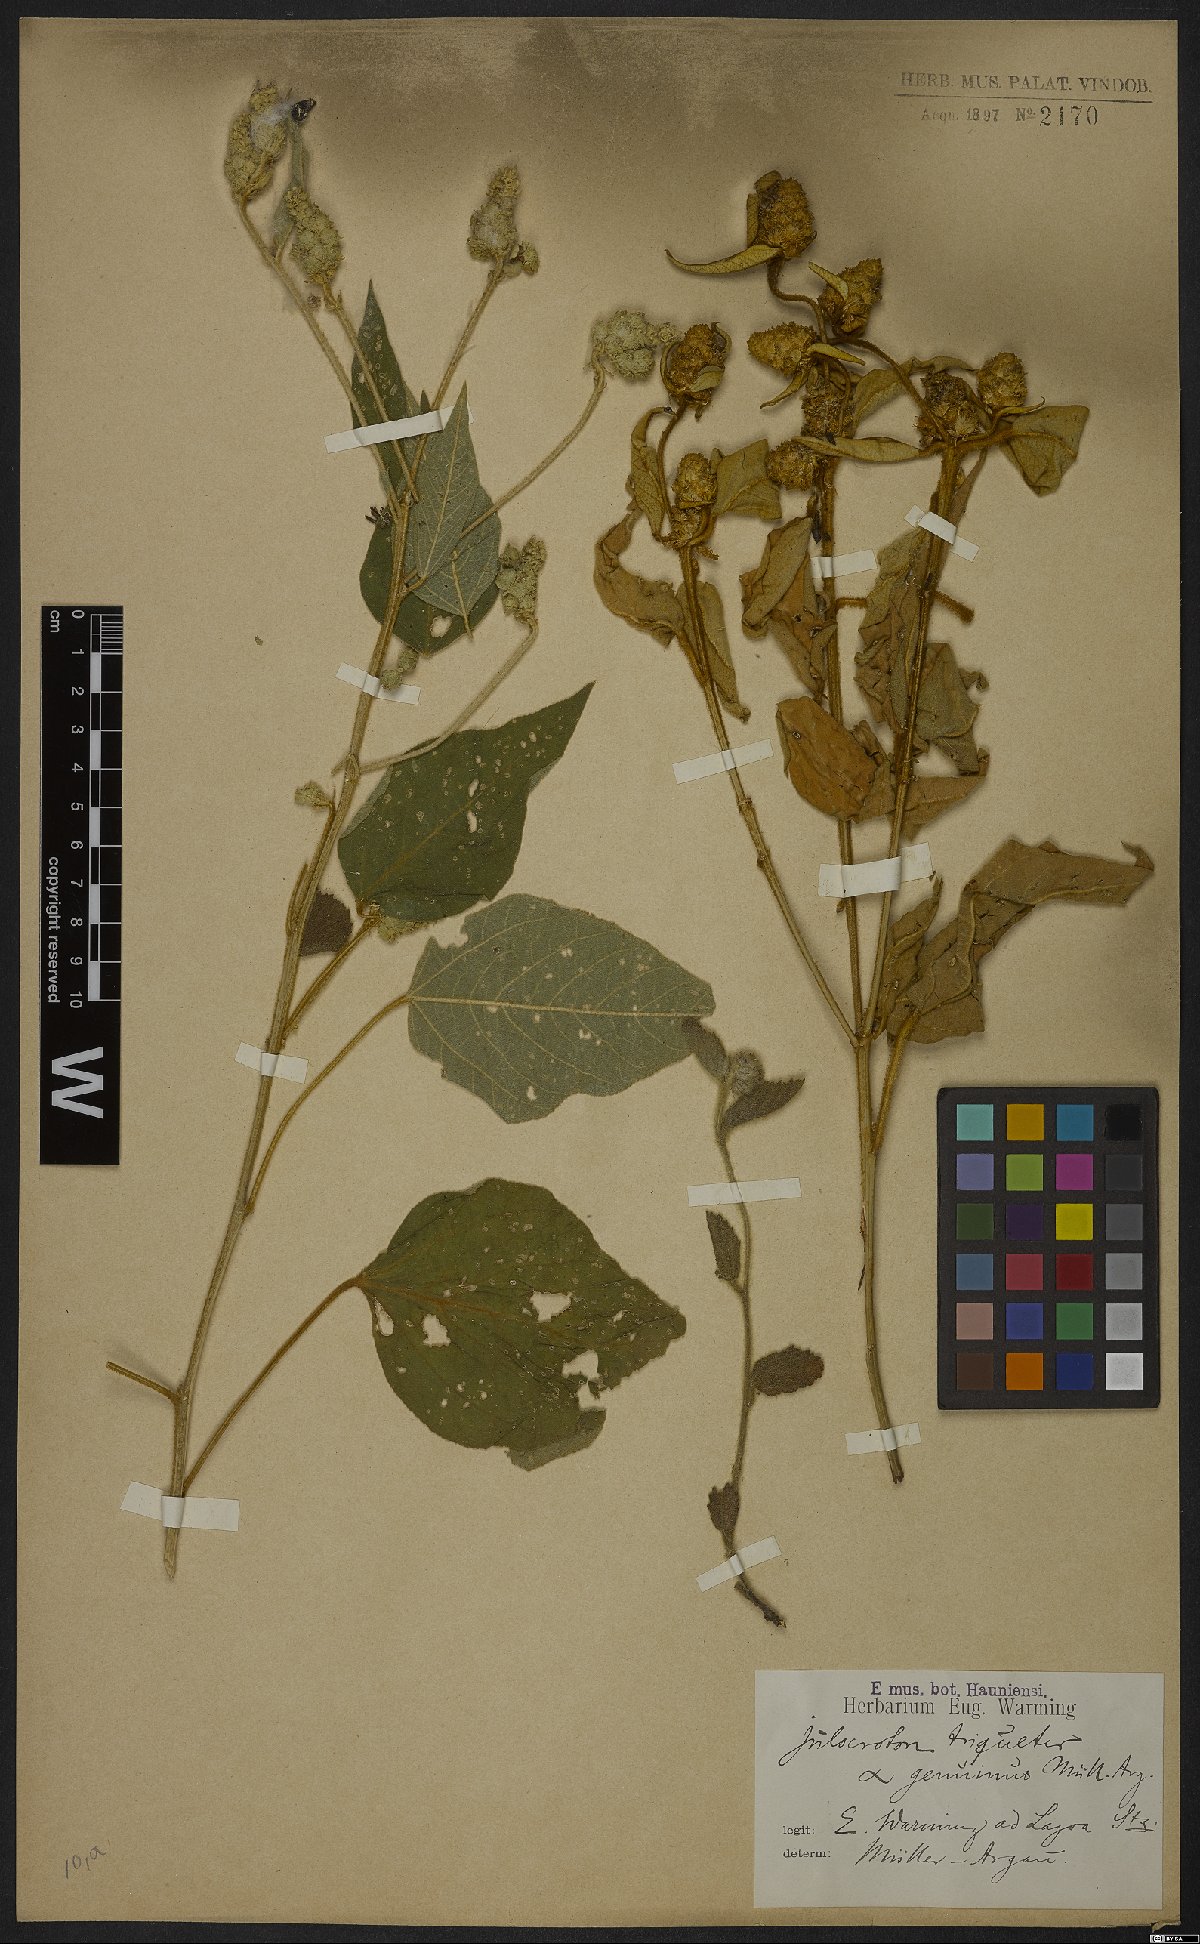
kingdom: Plantae
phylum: Tracheophyta
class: Magnoliopsida
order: Malpighiales
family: Euphorbiaceae
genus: Croton
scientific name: Croton triqueter
